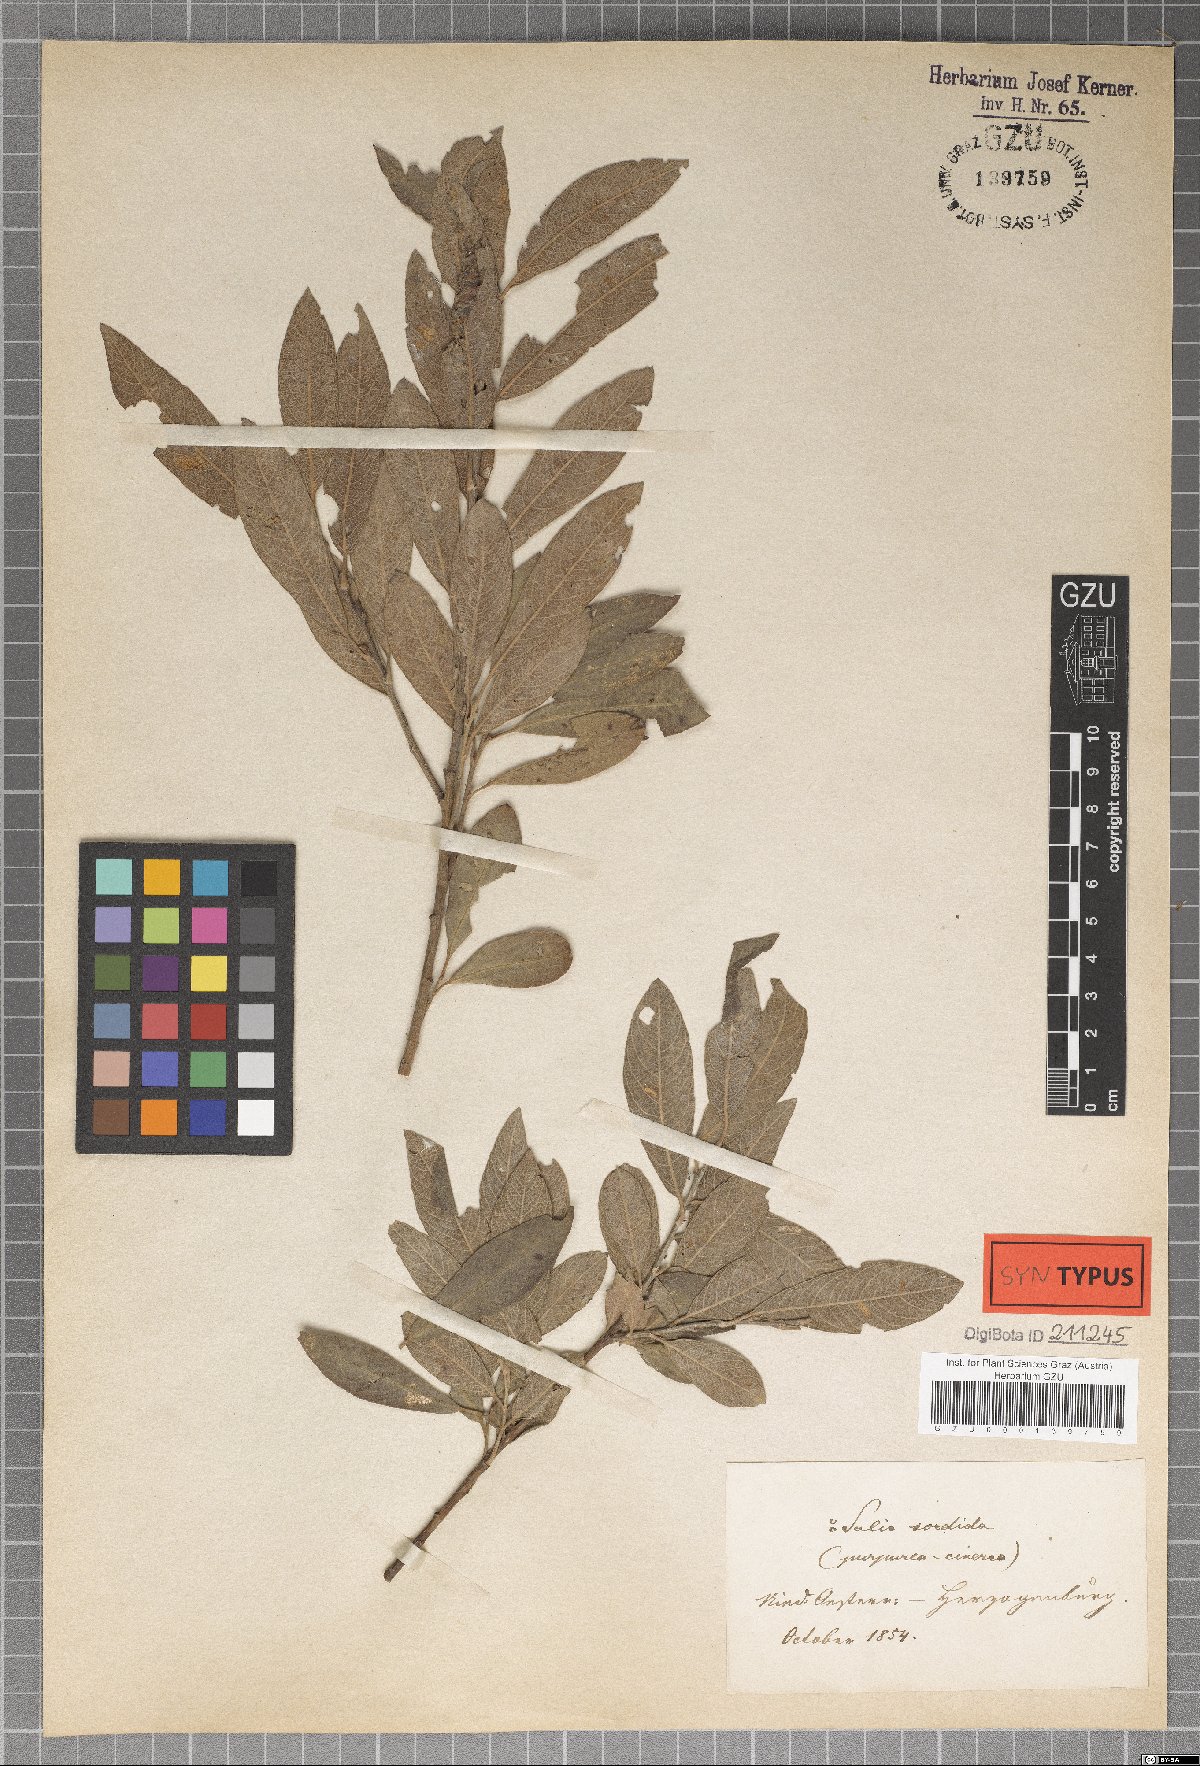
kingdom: Plantae
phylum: Tracheophyta
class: Magnoliopsida
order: Malpighiales
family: Salicaceae
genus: Salix
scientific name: Salix sordida
